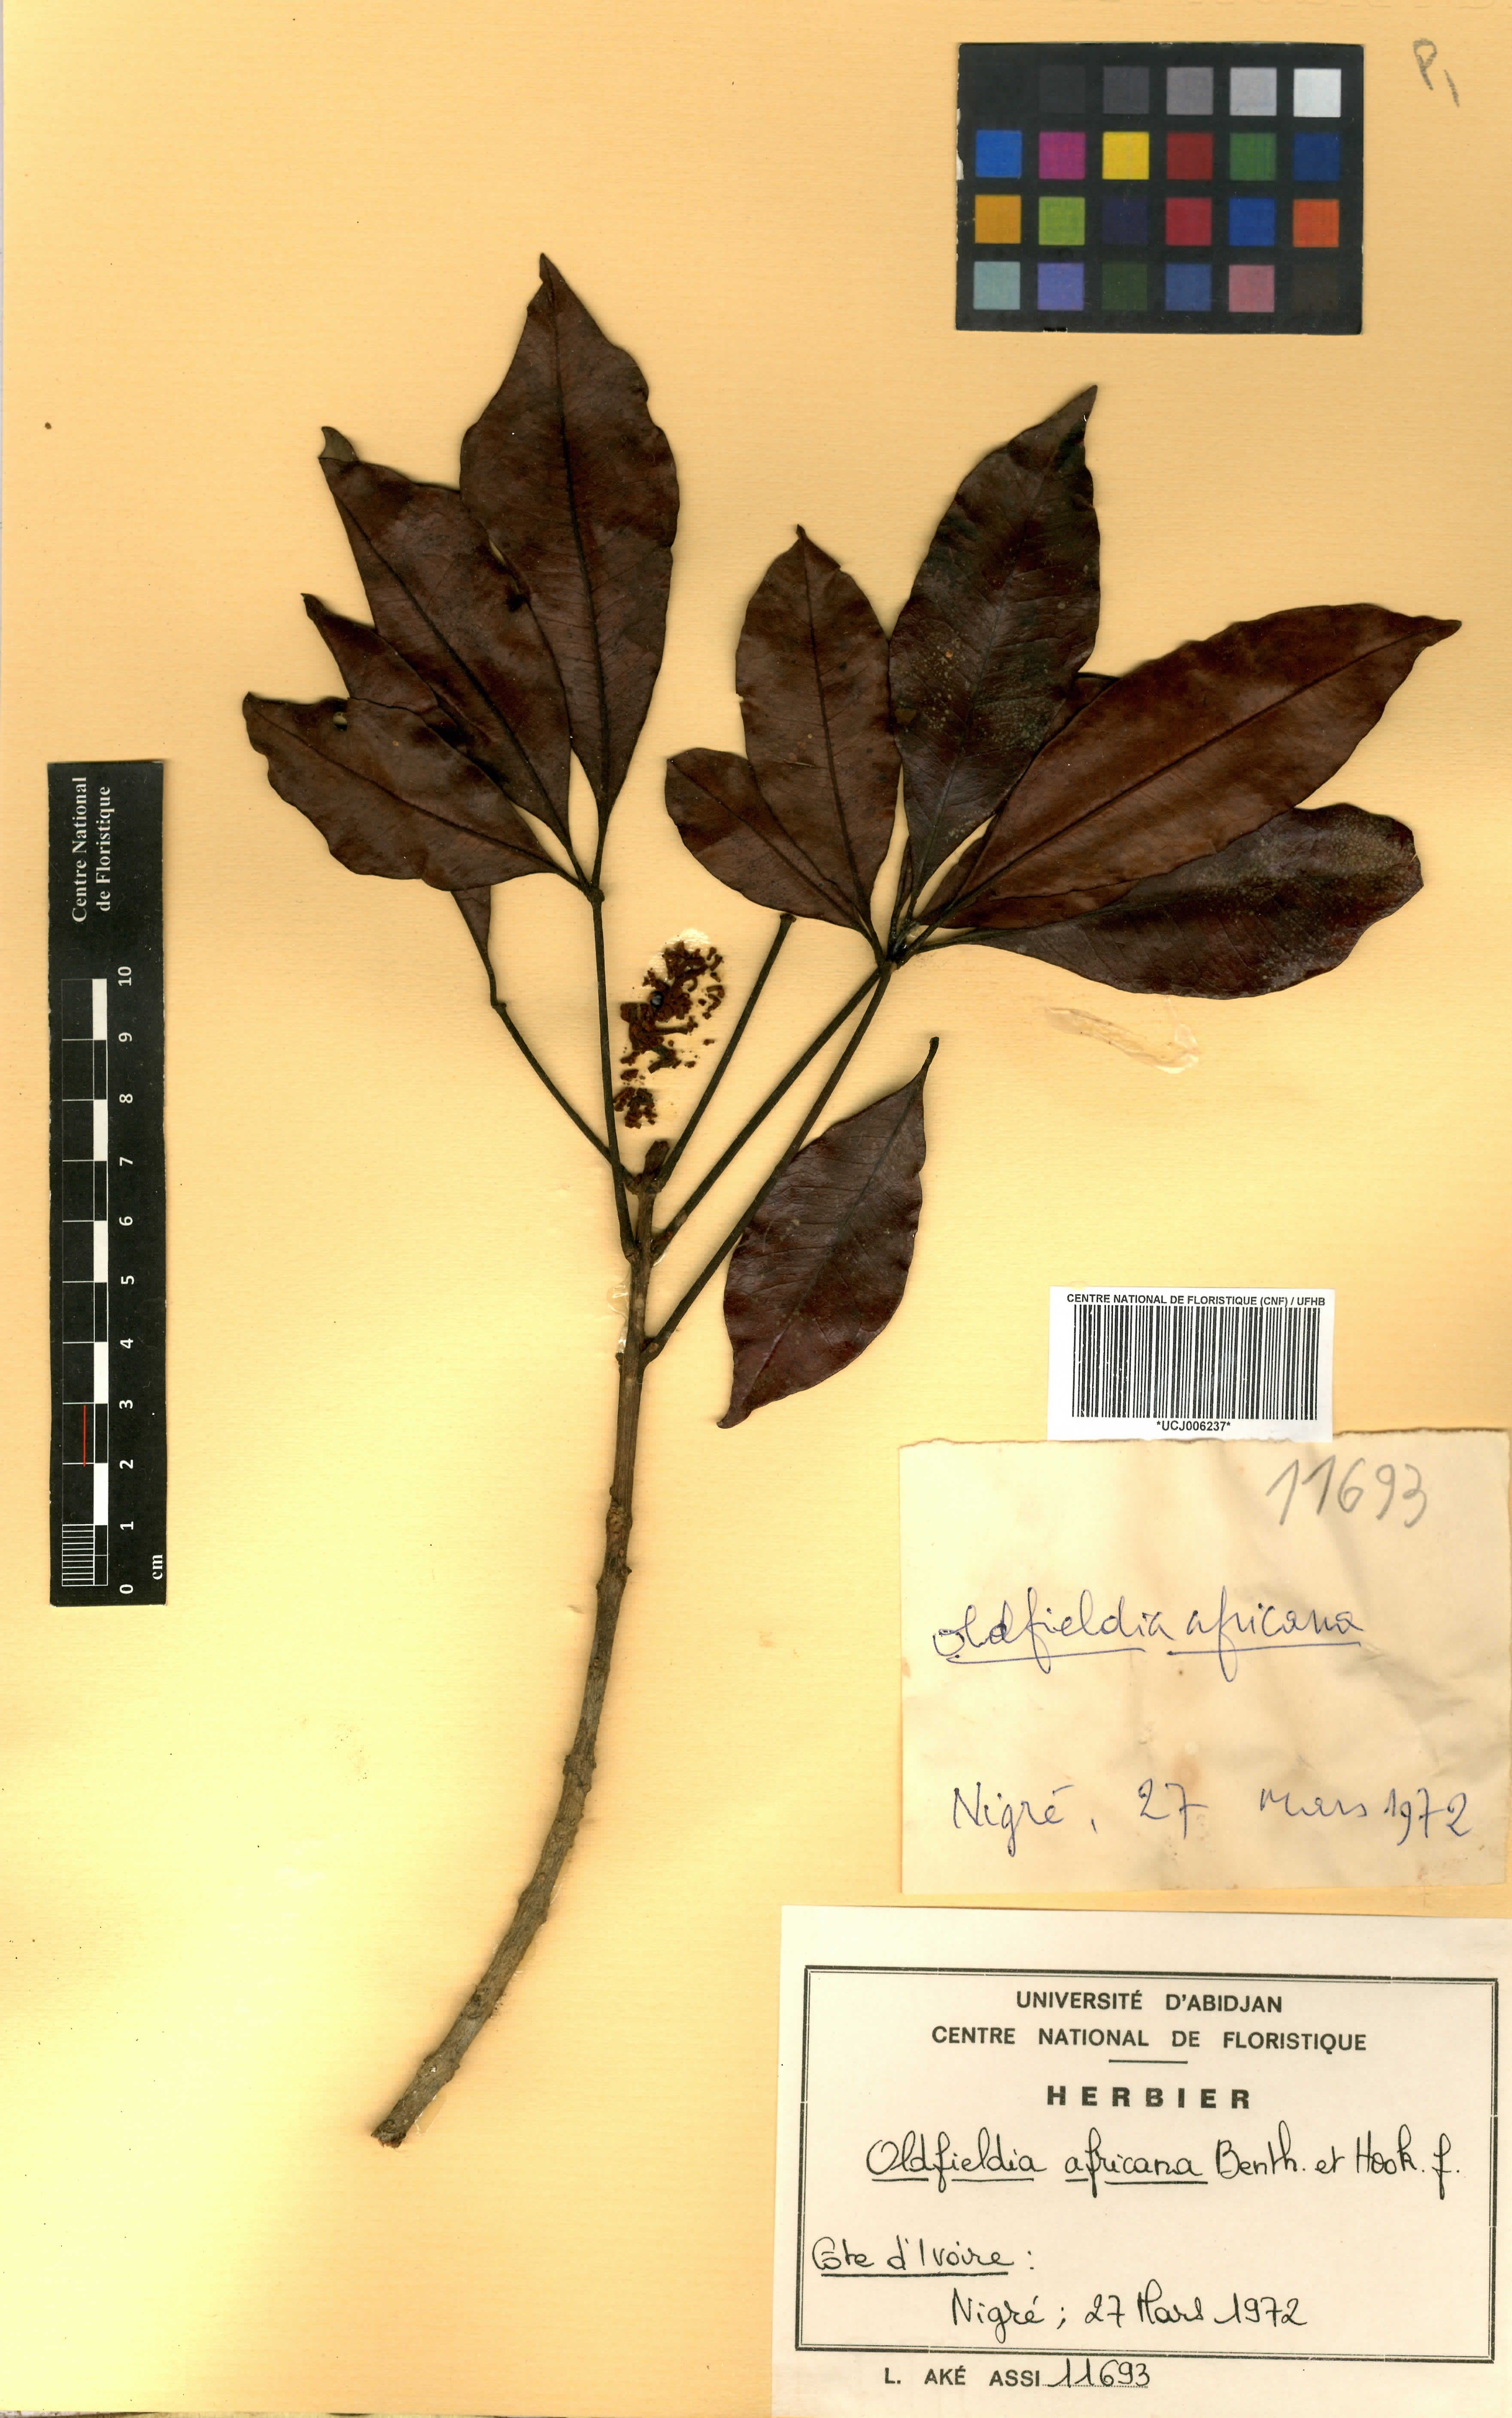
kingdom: Plantae
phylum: Tracheophyta
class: Magnoliopsida
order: Malpighiales
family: Picrodendraceae
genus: Oldfieldia
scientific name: Oldfieldia africana
